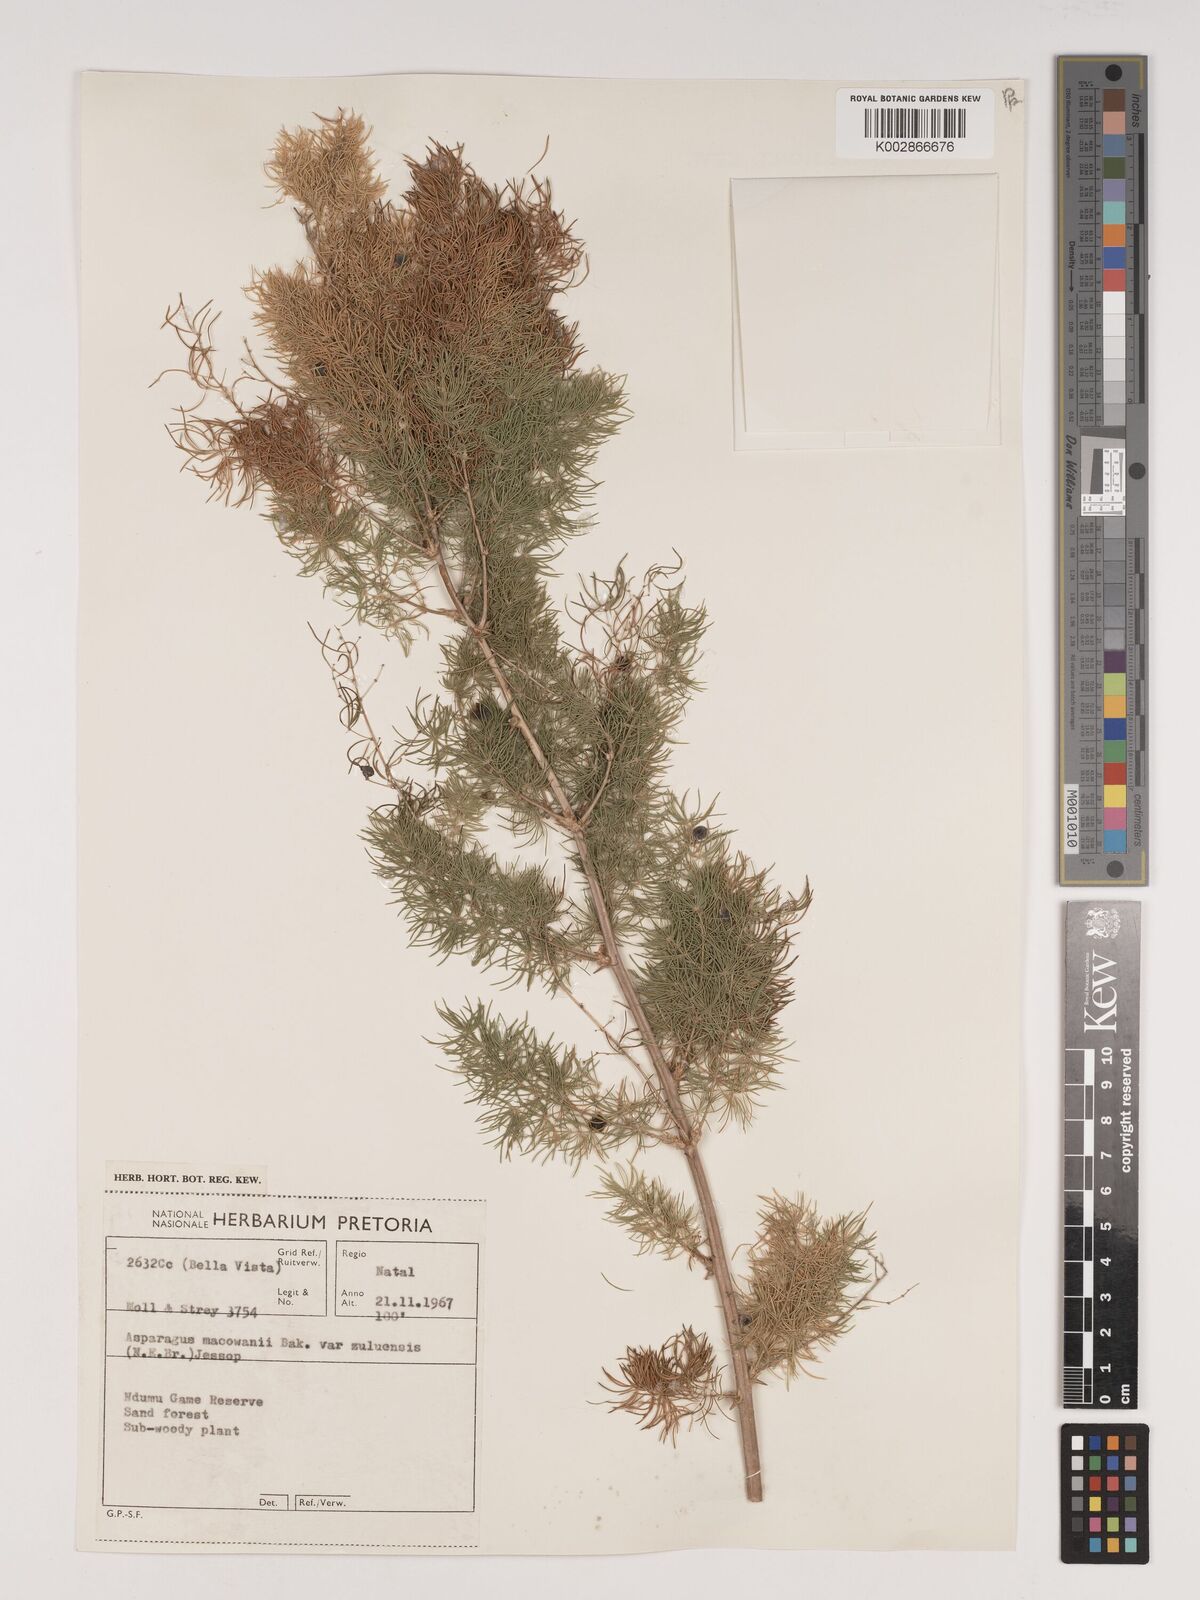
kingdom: Plantae
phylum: Tracheophyta
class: Liliopsida
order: Asparagales
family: Asparagaceae
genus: Asparagus
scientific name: Asparagus
